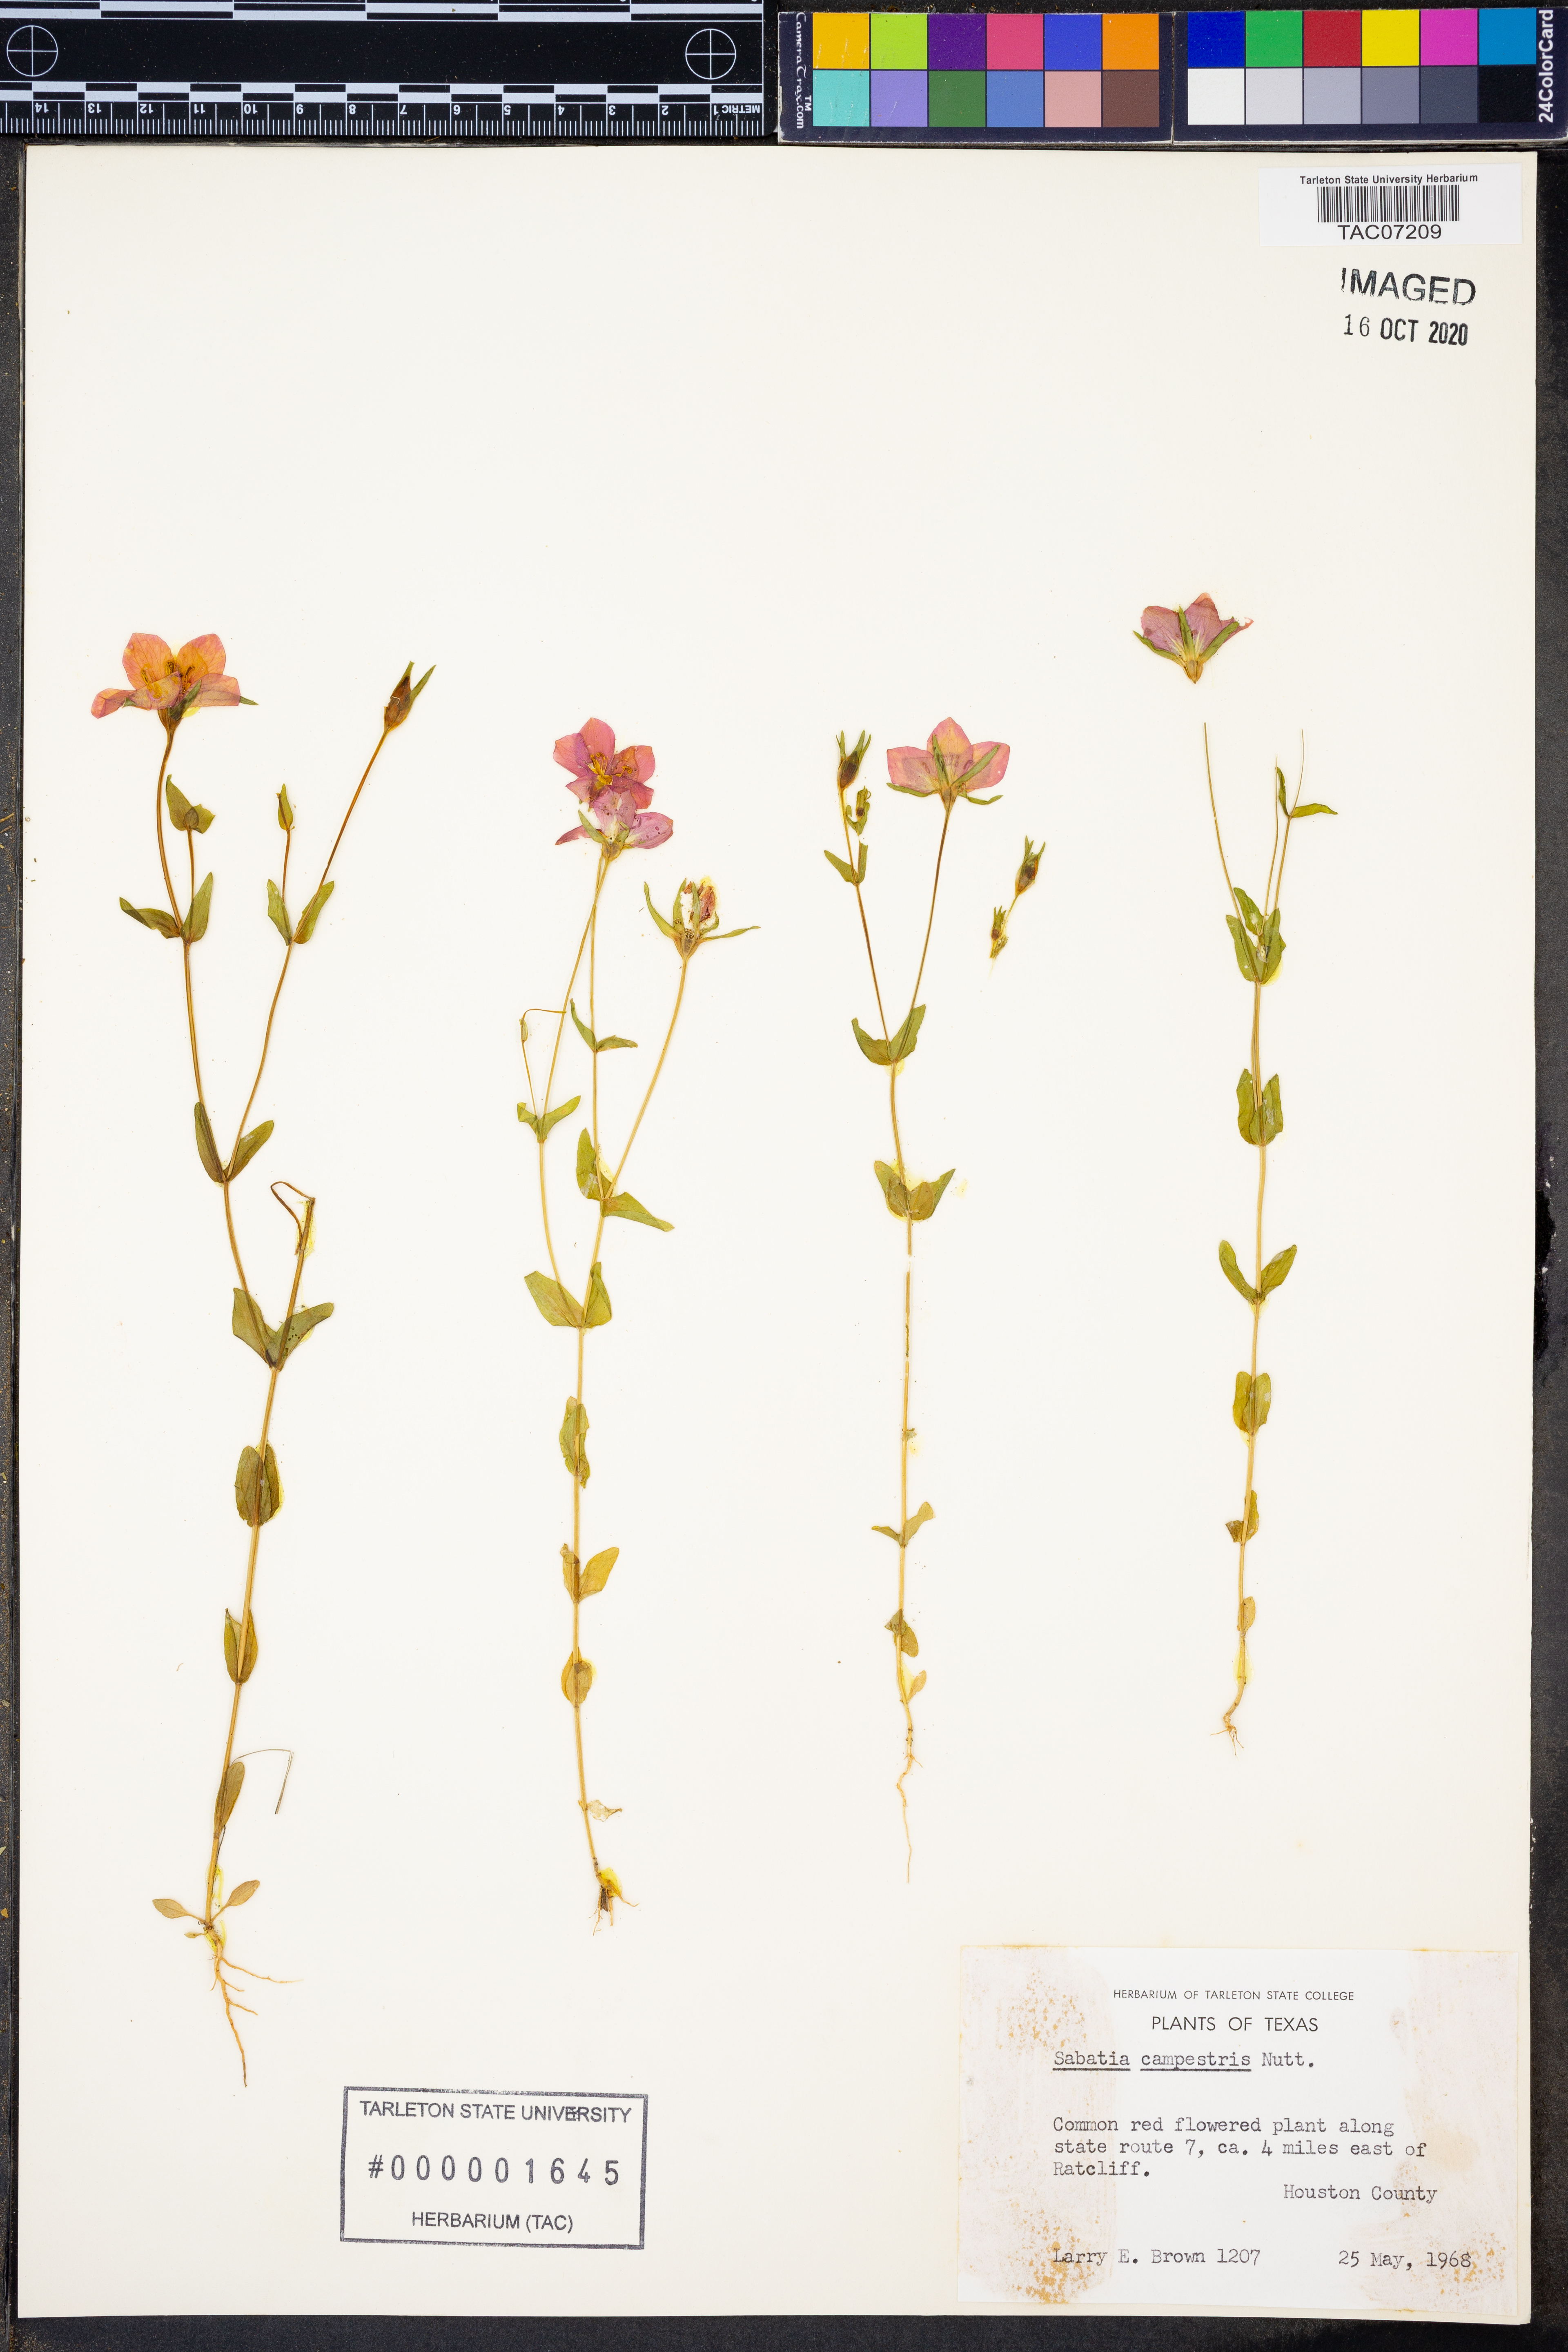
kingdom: Plantae
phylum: Tracheophyta
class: Magnoliopsida
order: Gentianales
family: Gentianaceae
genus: Sabatia
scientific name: Sabatia campanulata
